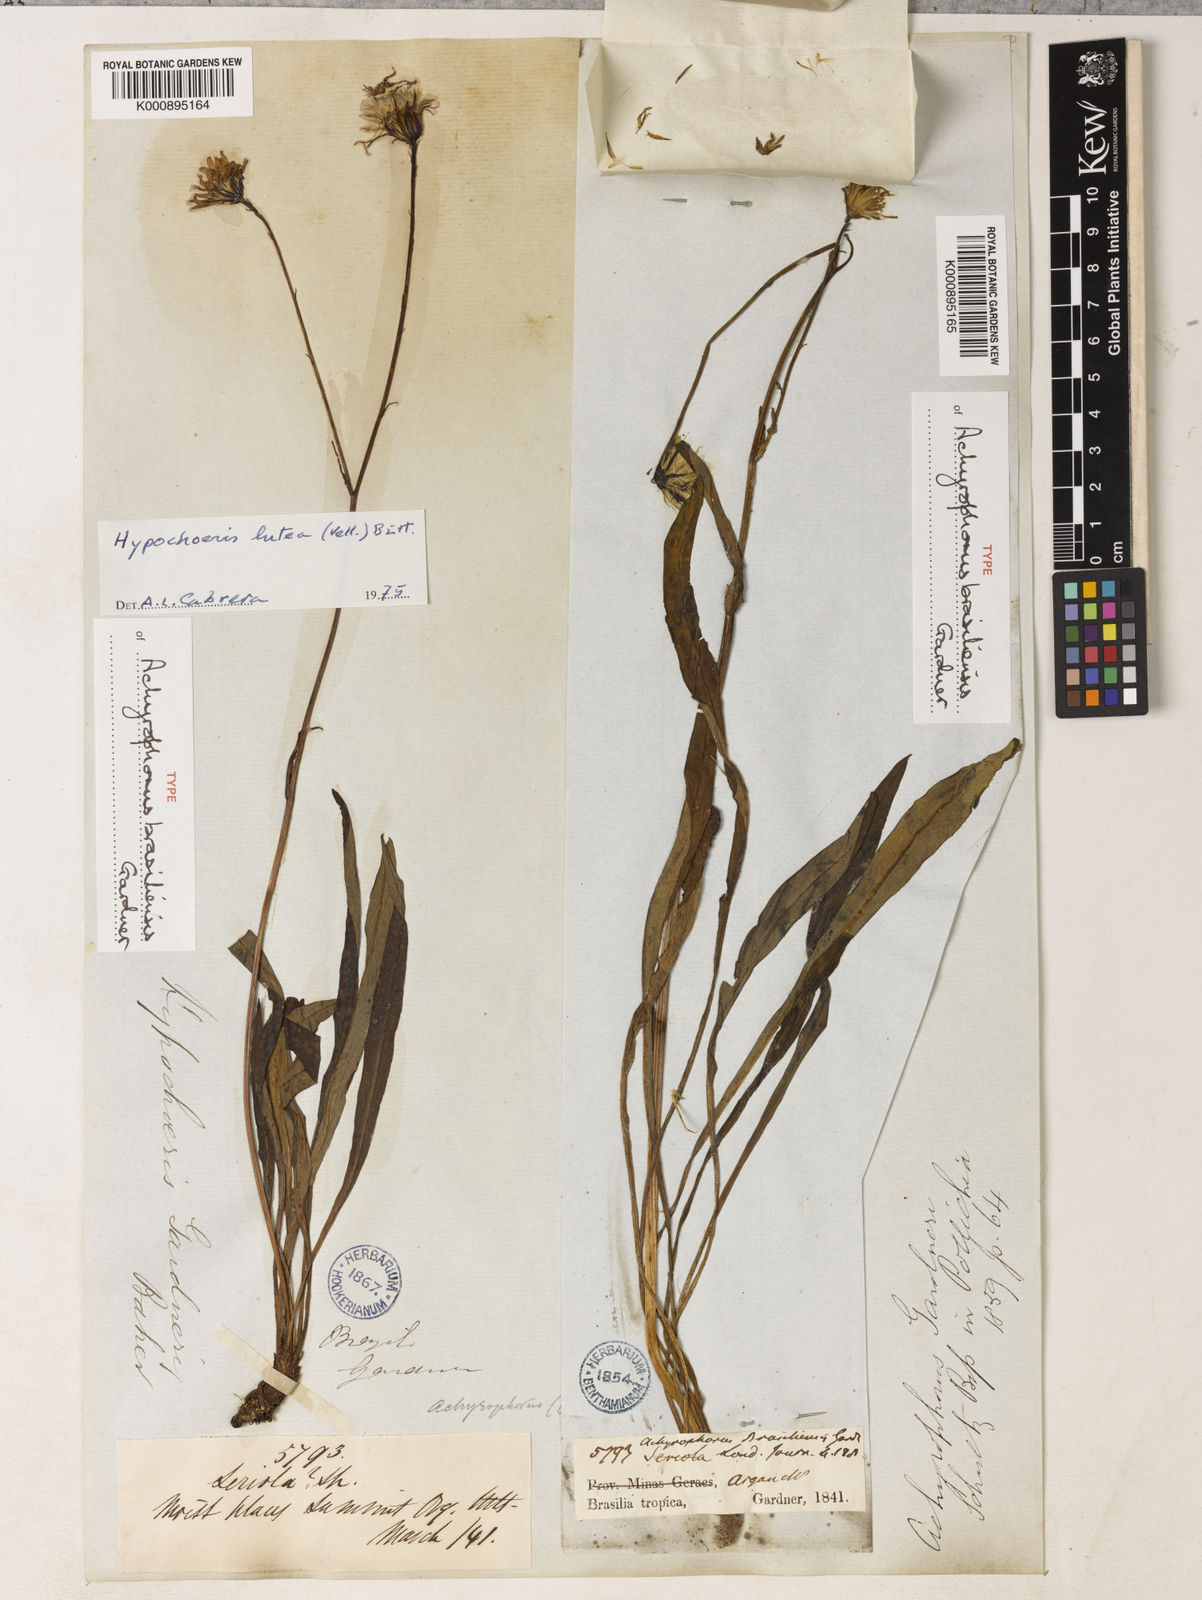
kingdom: Plantae
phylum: Tracheophyta
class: Magnoliopsida
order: Asterales
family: Asteraceae
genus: Hypochaeris
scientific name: Hypochaeris lutea
